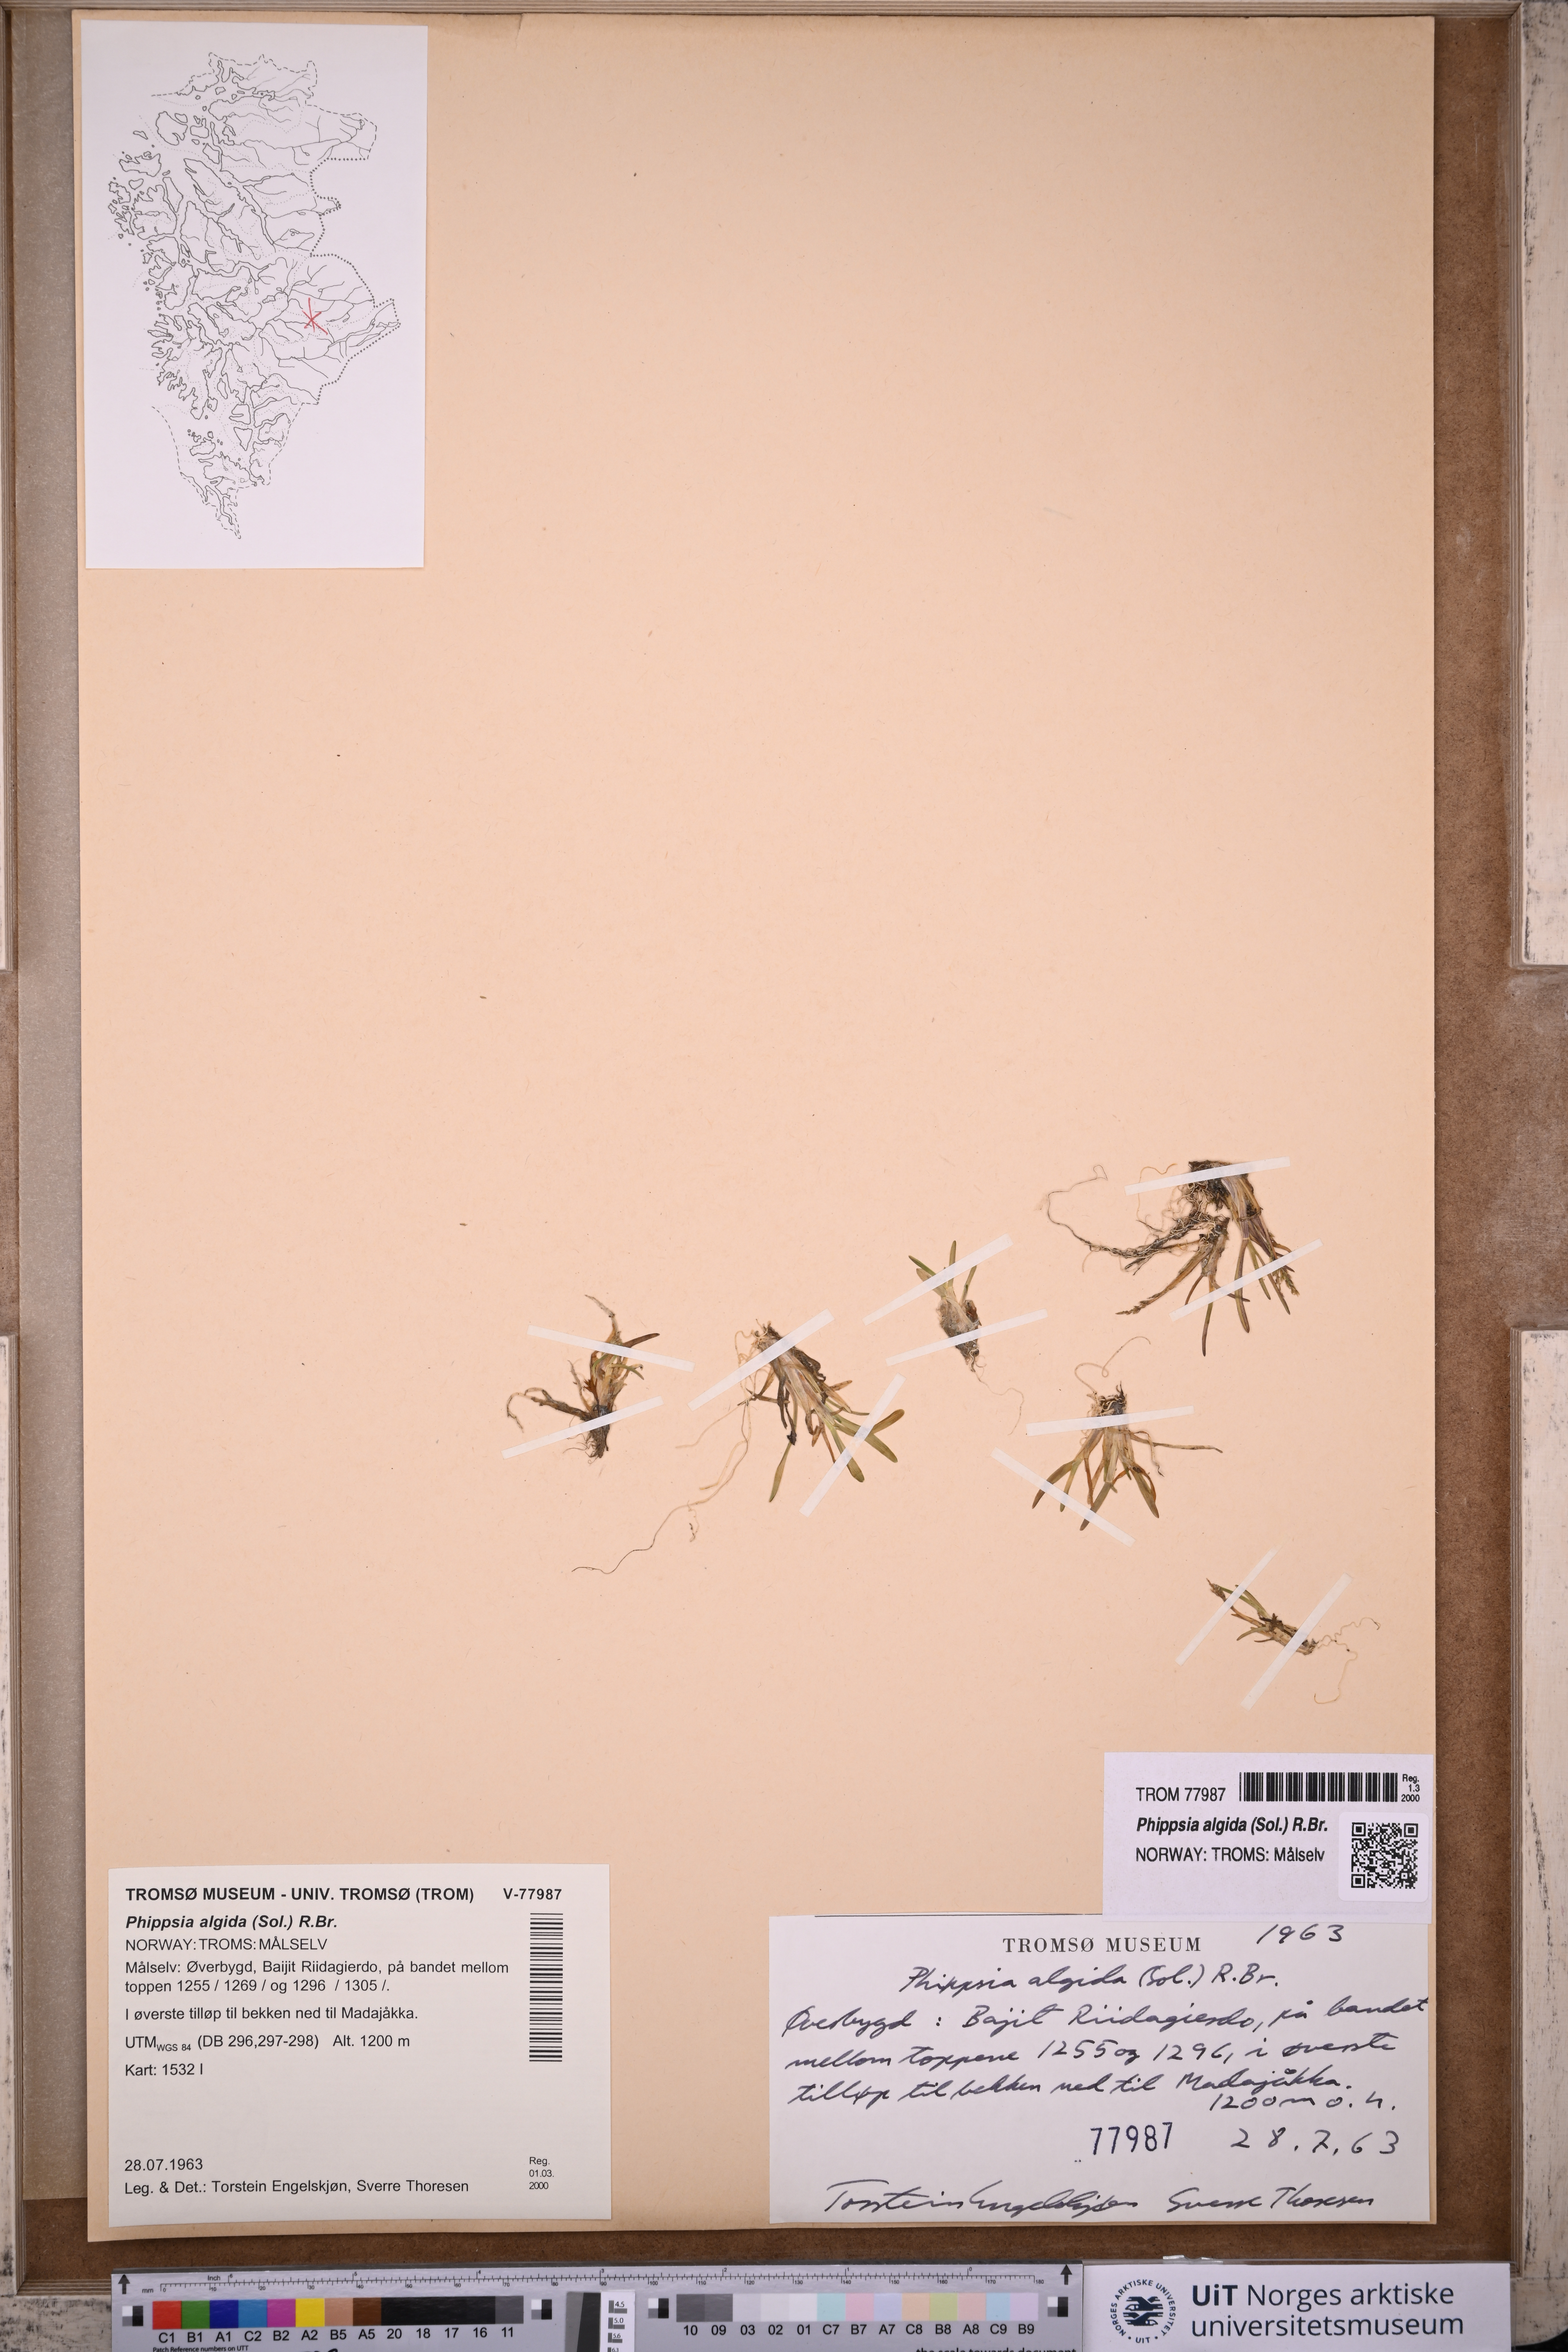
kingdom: Plantae
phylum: Tracheophyta
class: Liliopsida
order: Poales
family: Poaceae
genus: Phippsia
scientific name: Phippsia algida
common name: Ice grass
